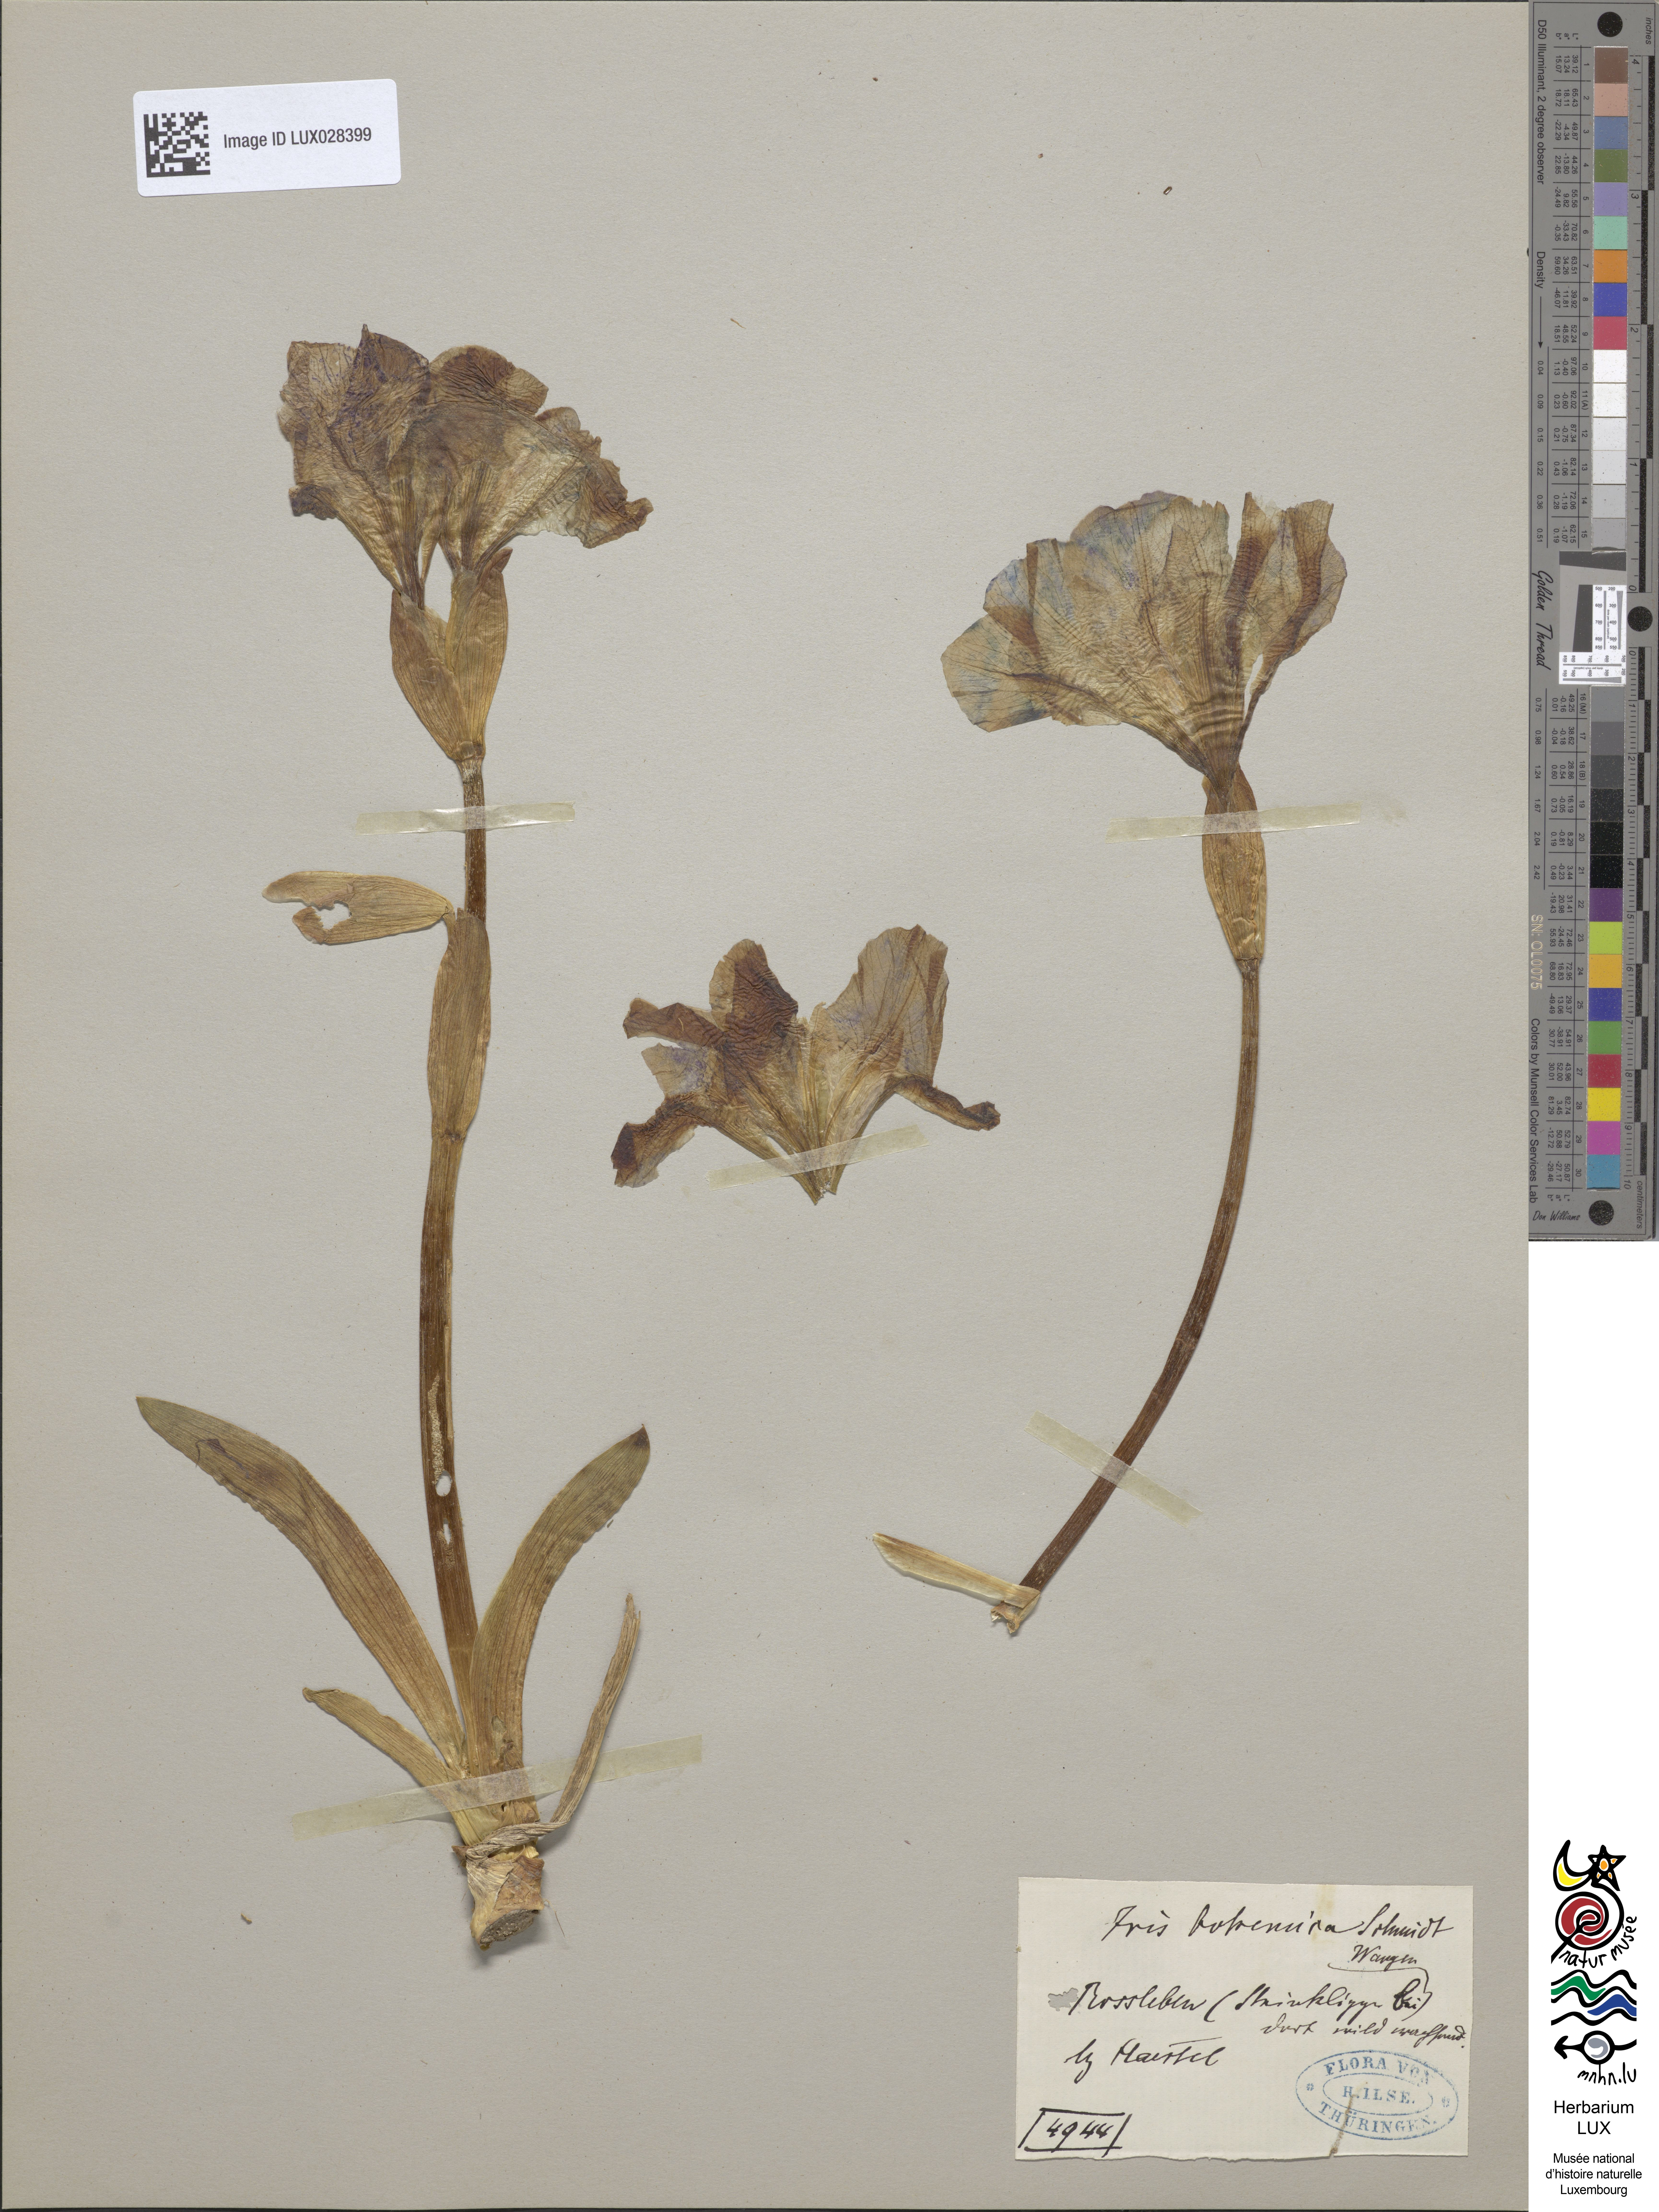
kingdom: Animalia
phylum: Arthropoda
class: Insecta
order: Mantodea
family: Eremiaphilidae
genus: Iris
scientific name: Iris
